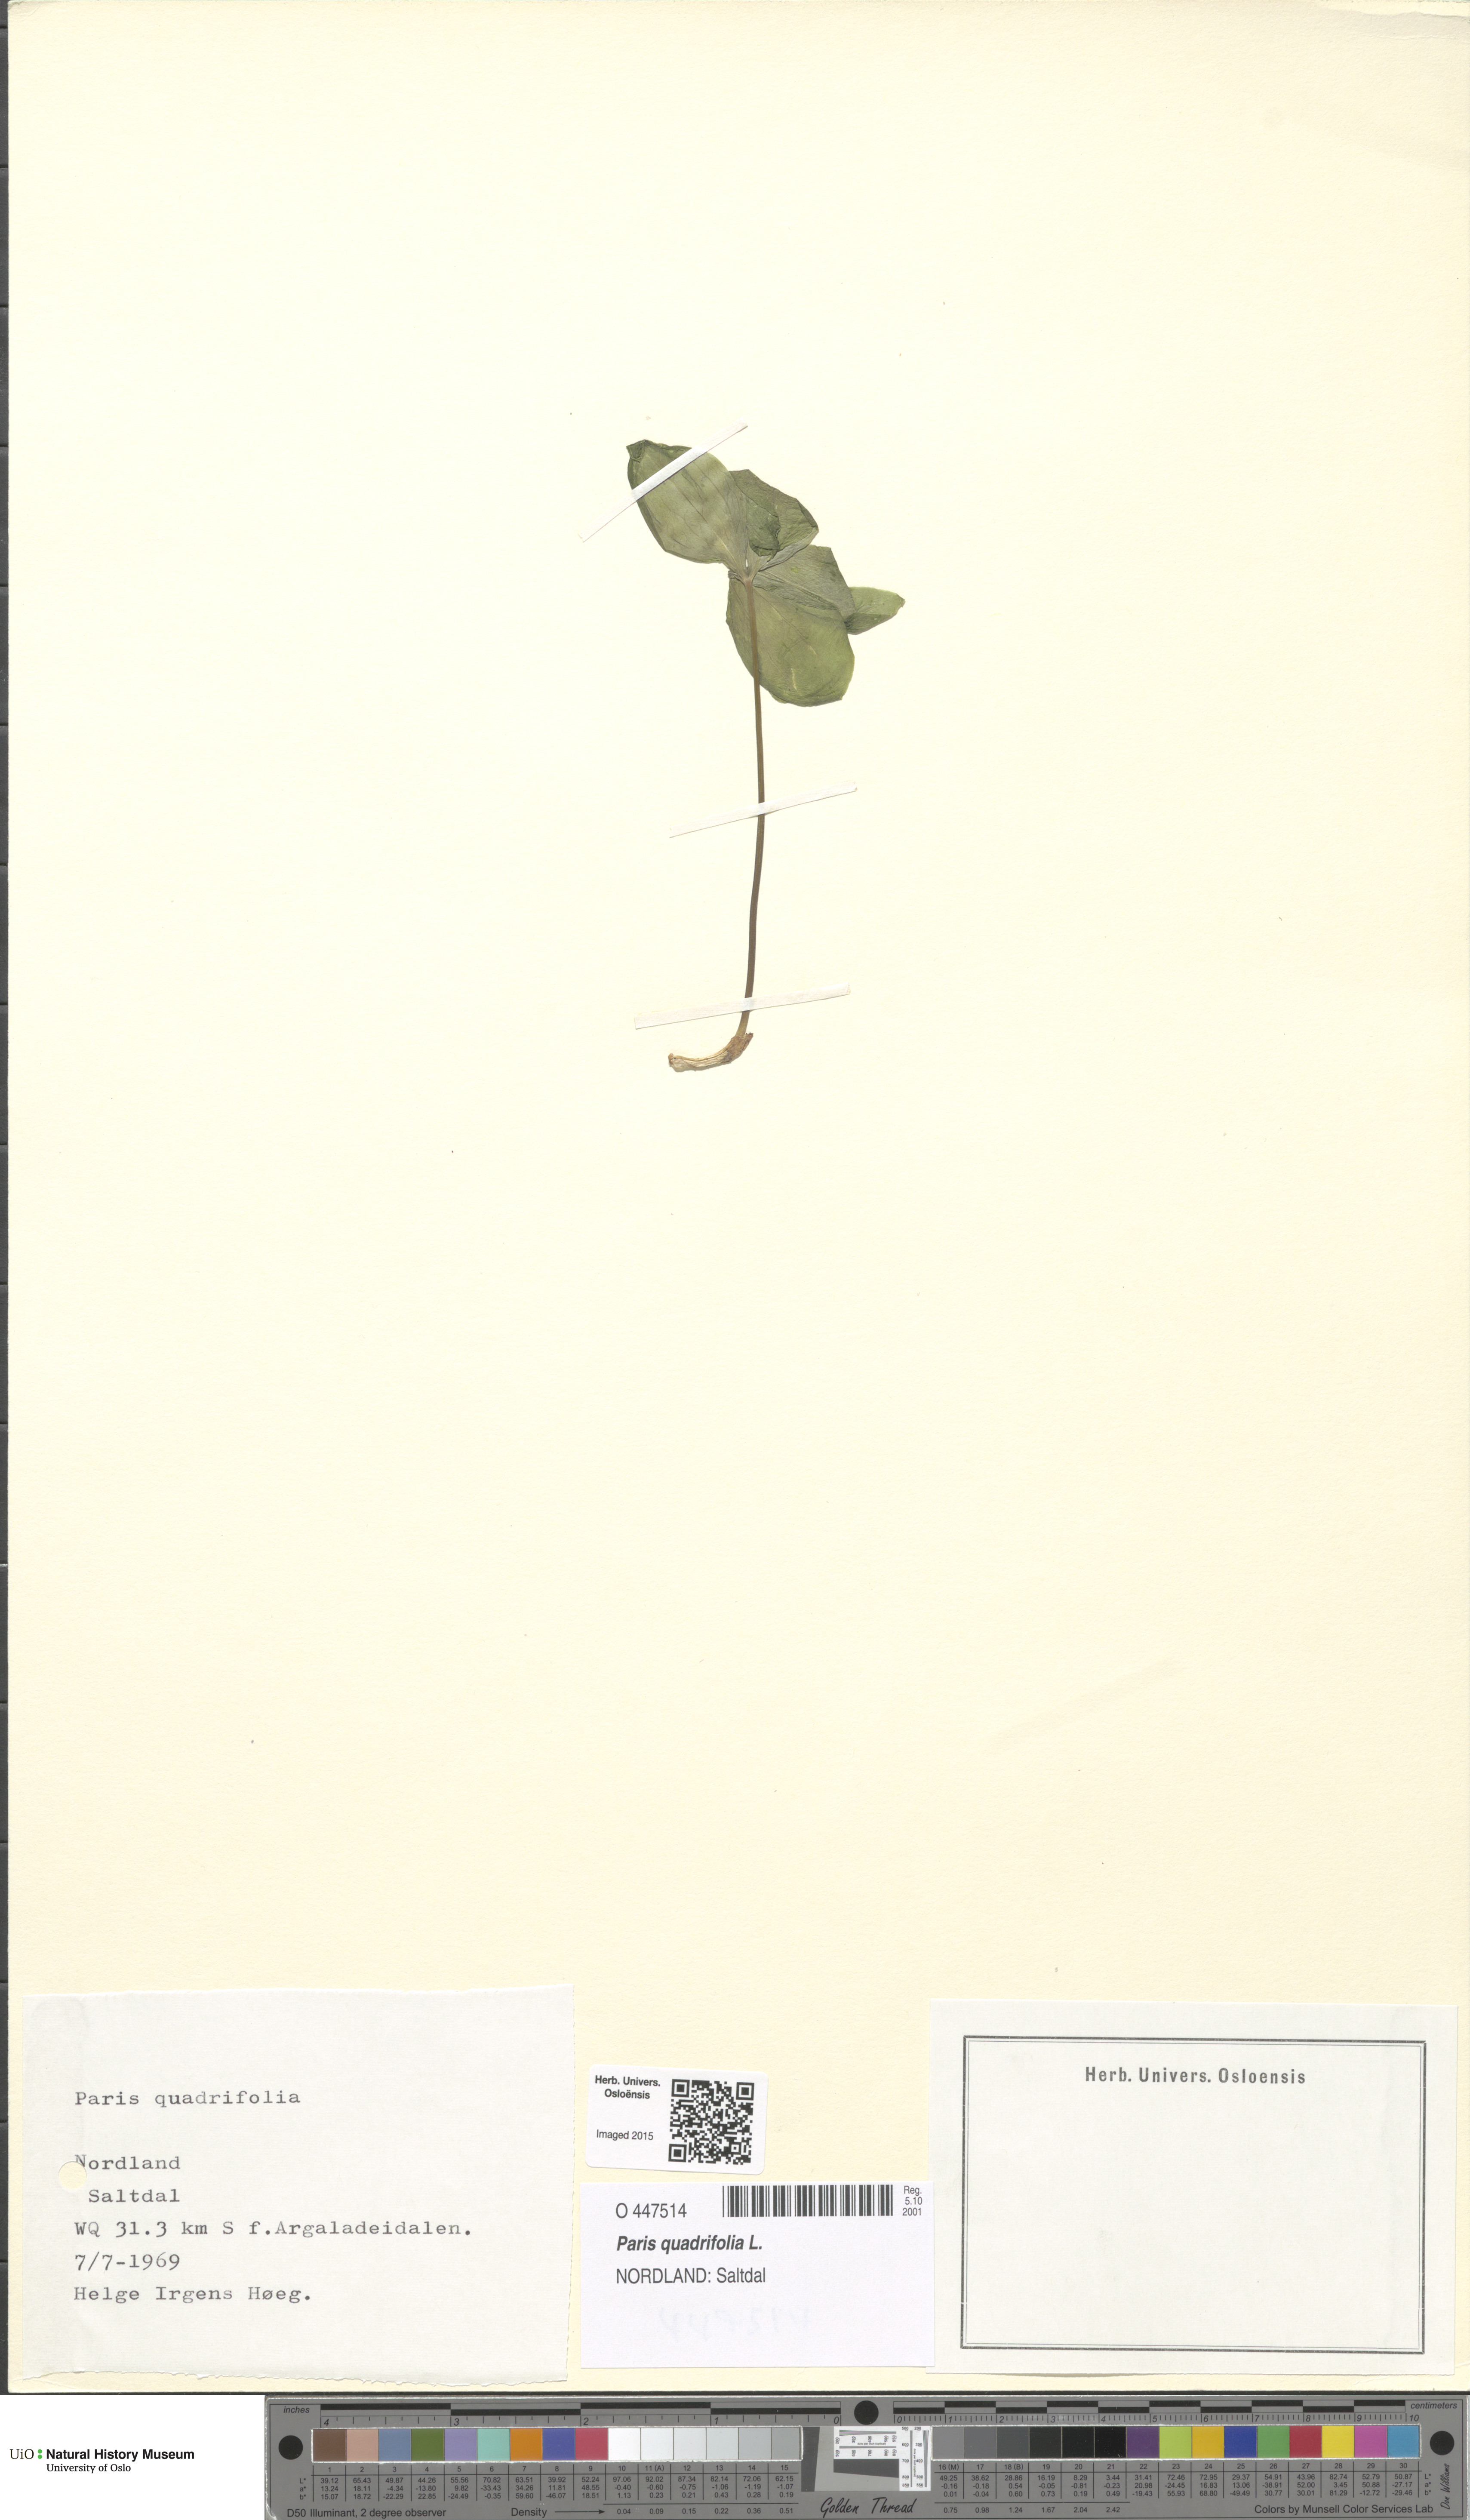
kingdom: Plantae
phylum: Tracheophyta
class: Liliopsida
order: Liliales
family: Melanthiaceae
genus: Paris
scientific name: Paris quadrifolia
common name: Herb-paris
